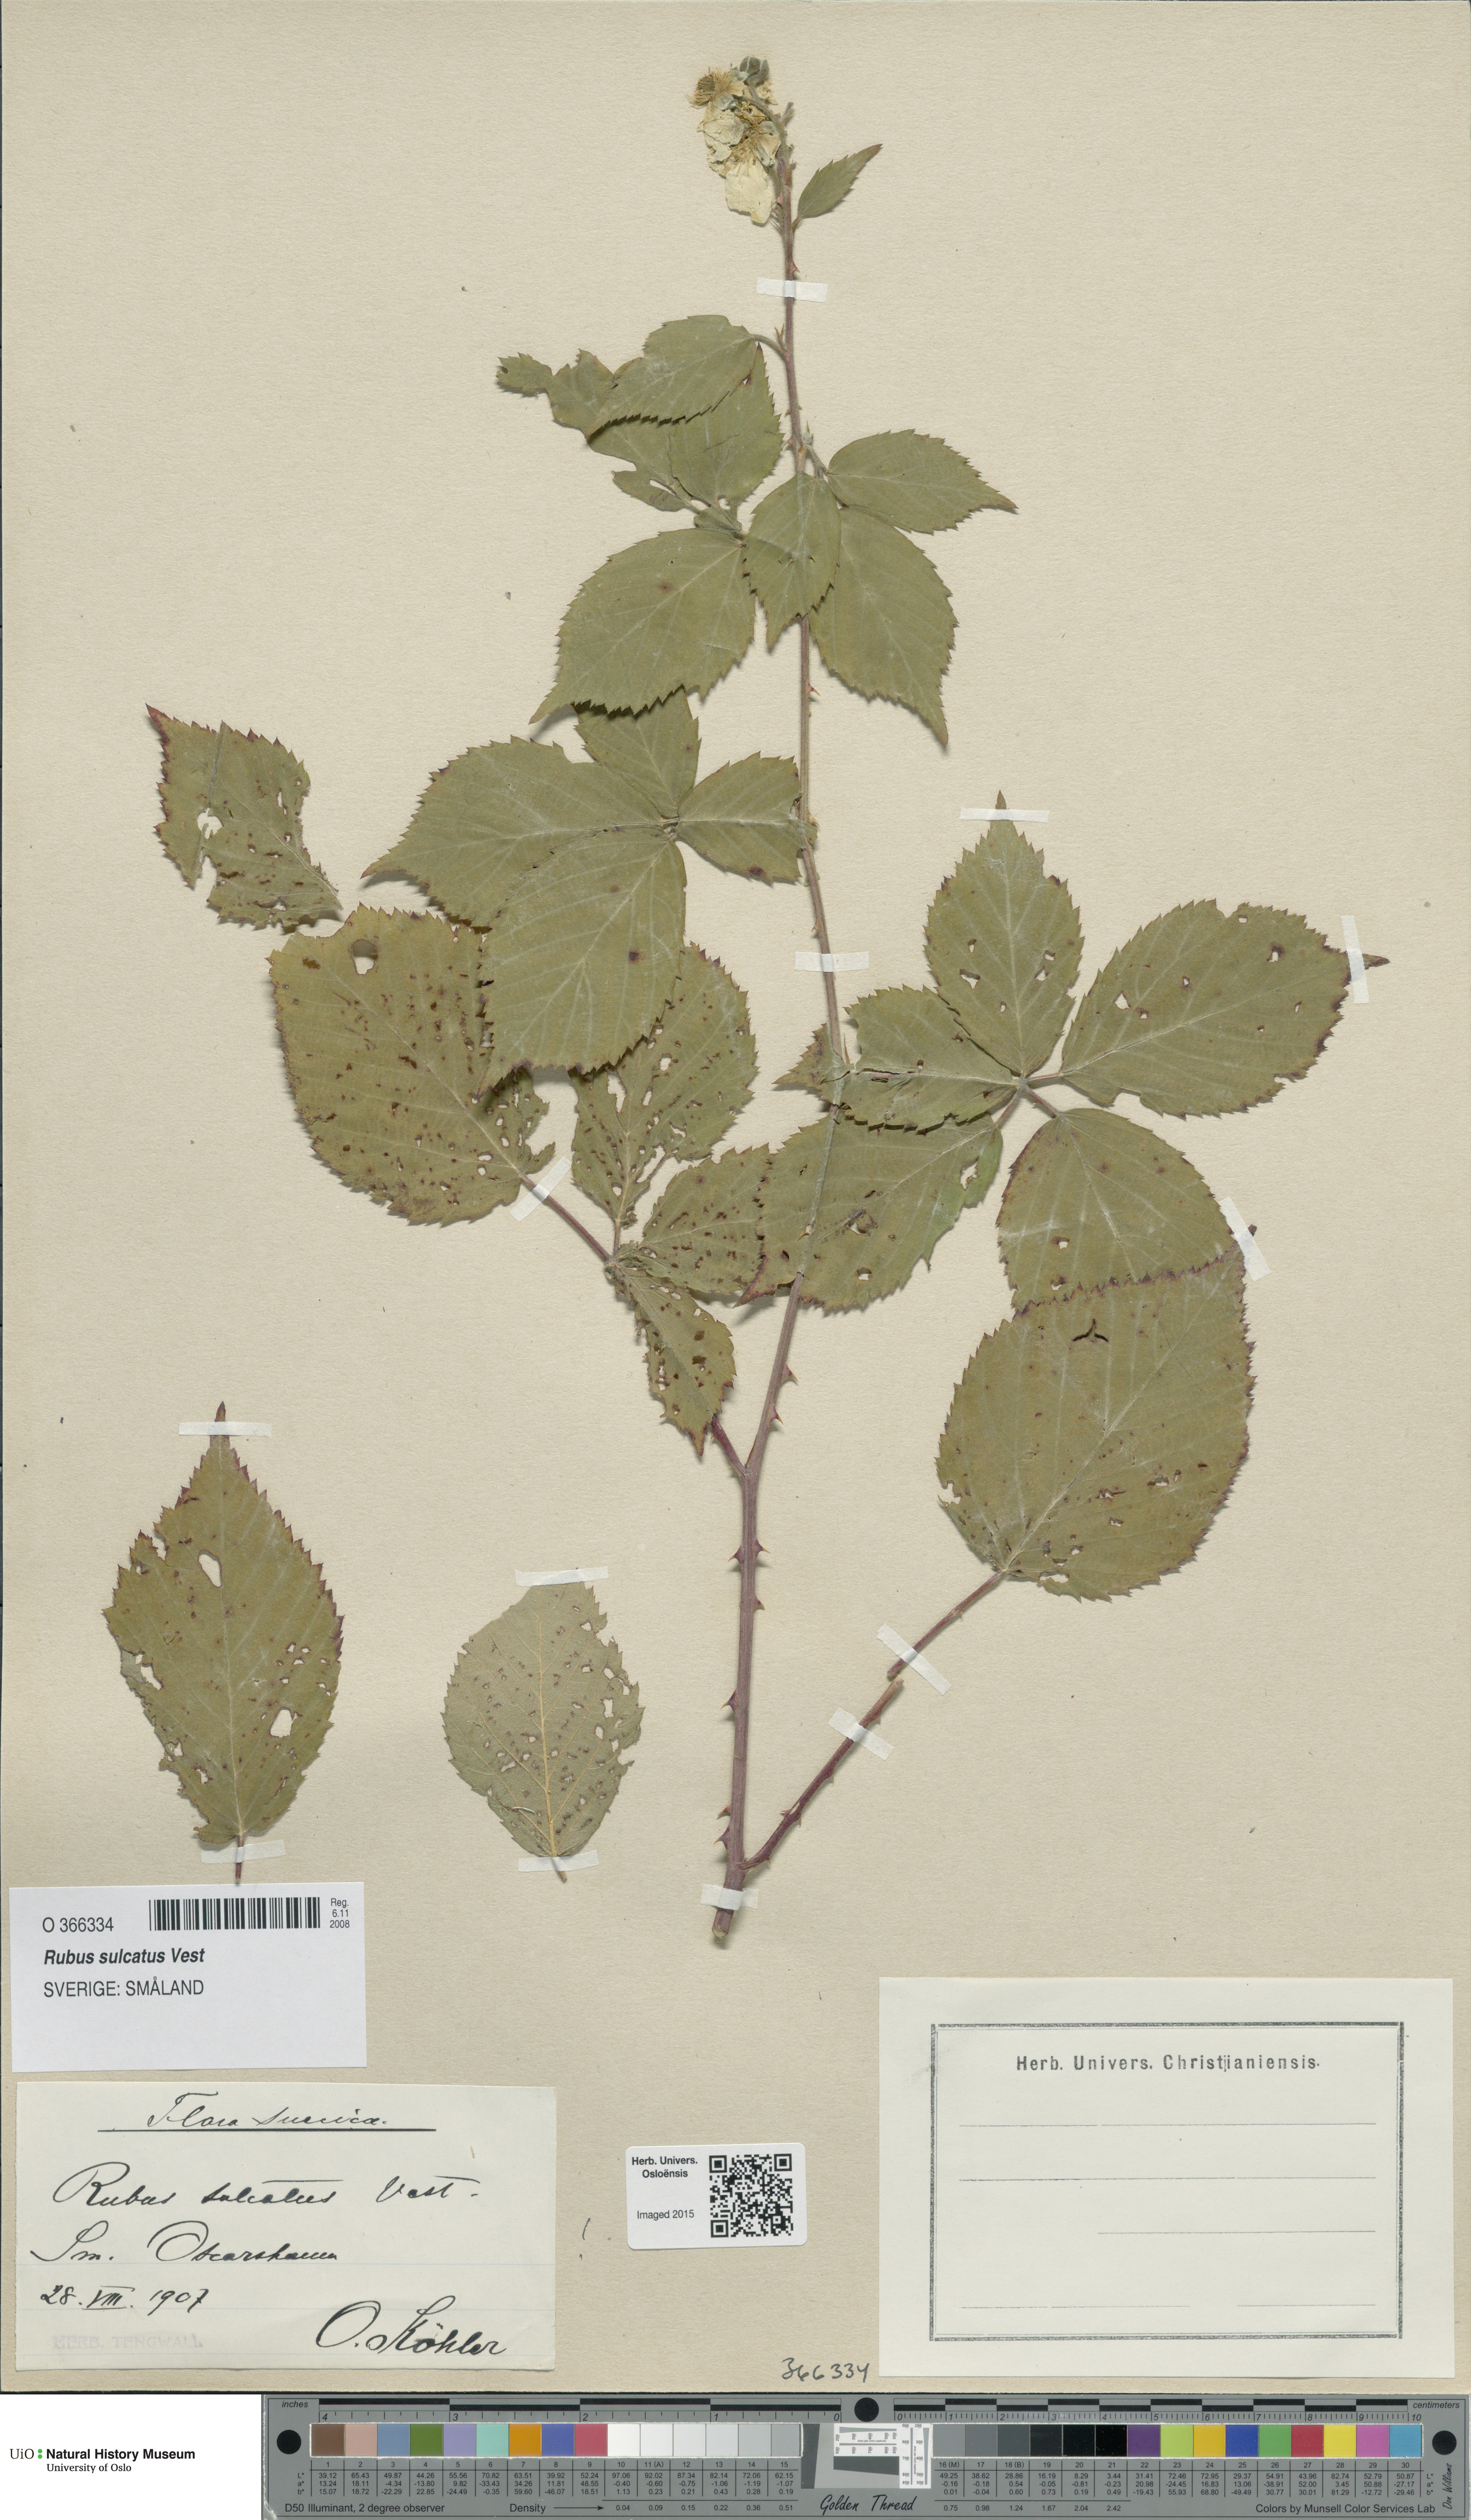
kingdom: Plantae
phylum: Tracheophyta
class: Magnoliopsida
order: Rosales
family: Rosaceae
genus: Rubus
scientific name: Rubus sulcatus
